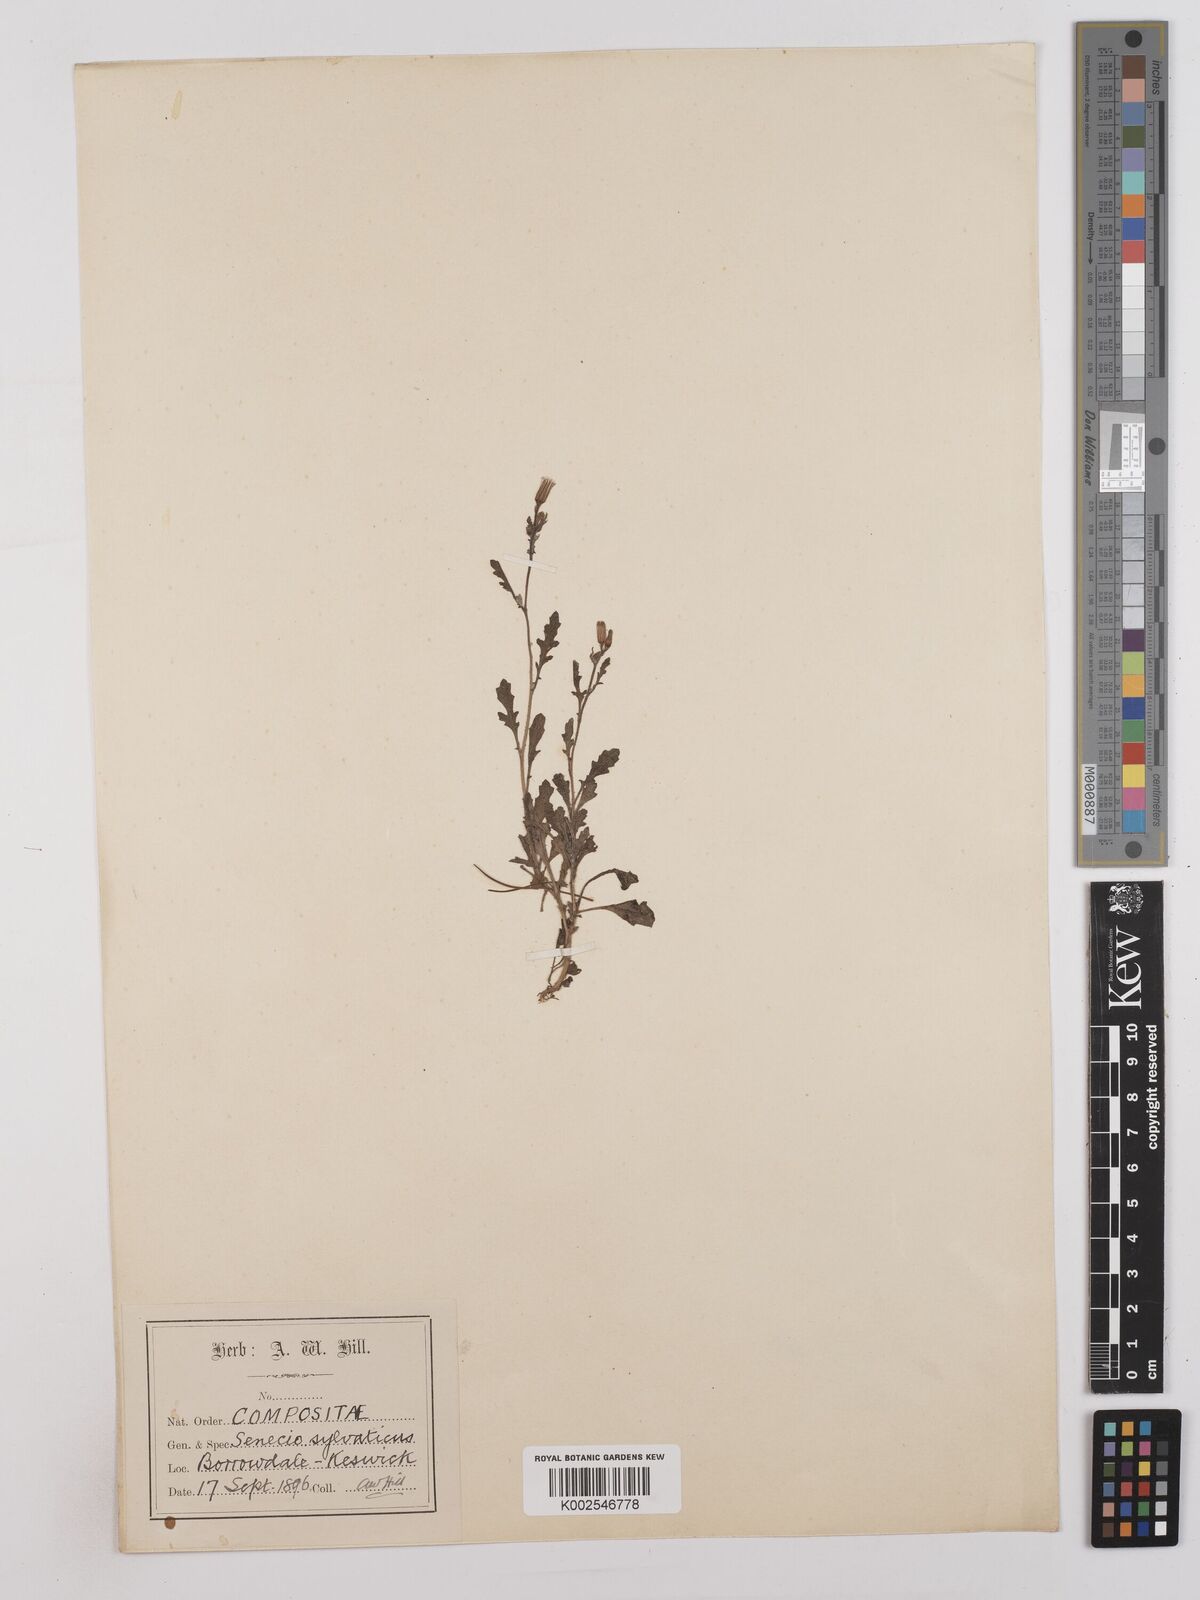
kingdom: Plantae
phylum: Tracheophyta
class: Magnoliopsida
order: Asterales
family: Asteraceae
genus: Senecio
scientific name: Senecio sylvaticus
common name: Woodland ragwort
